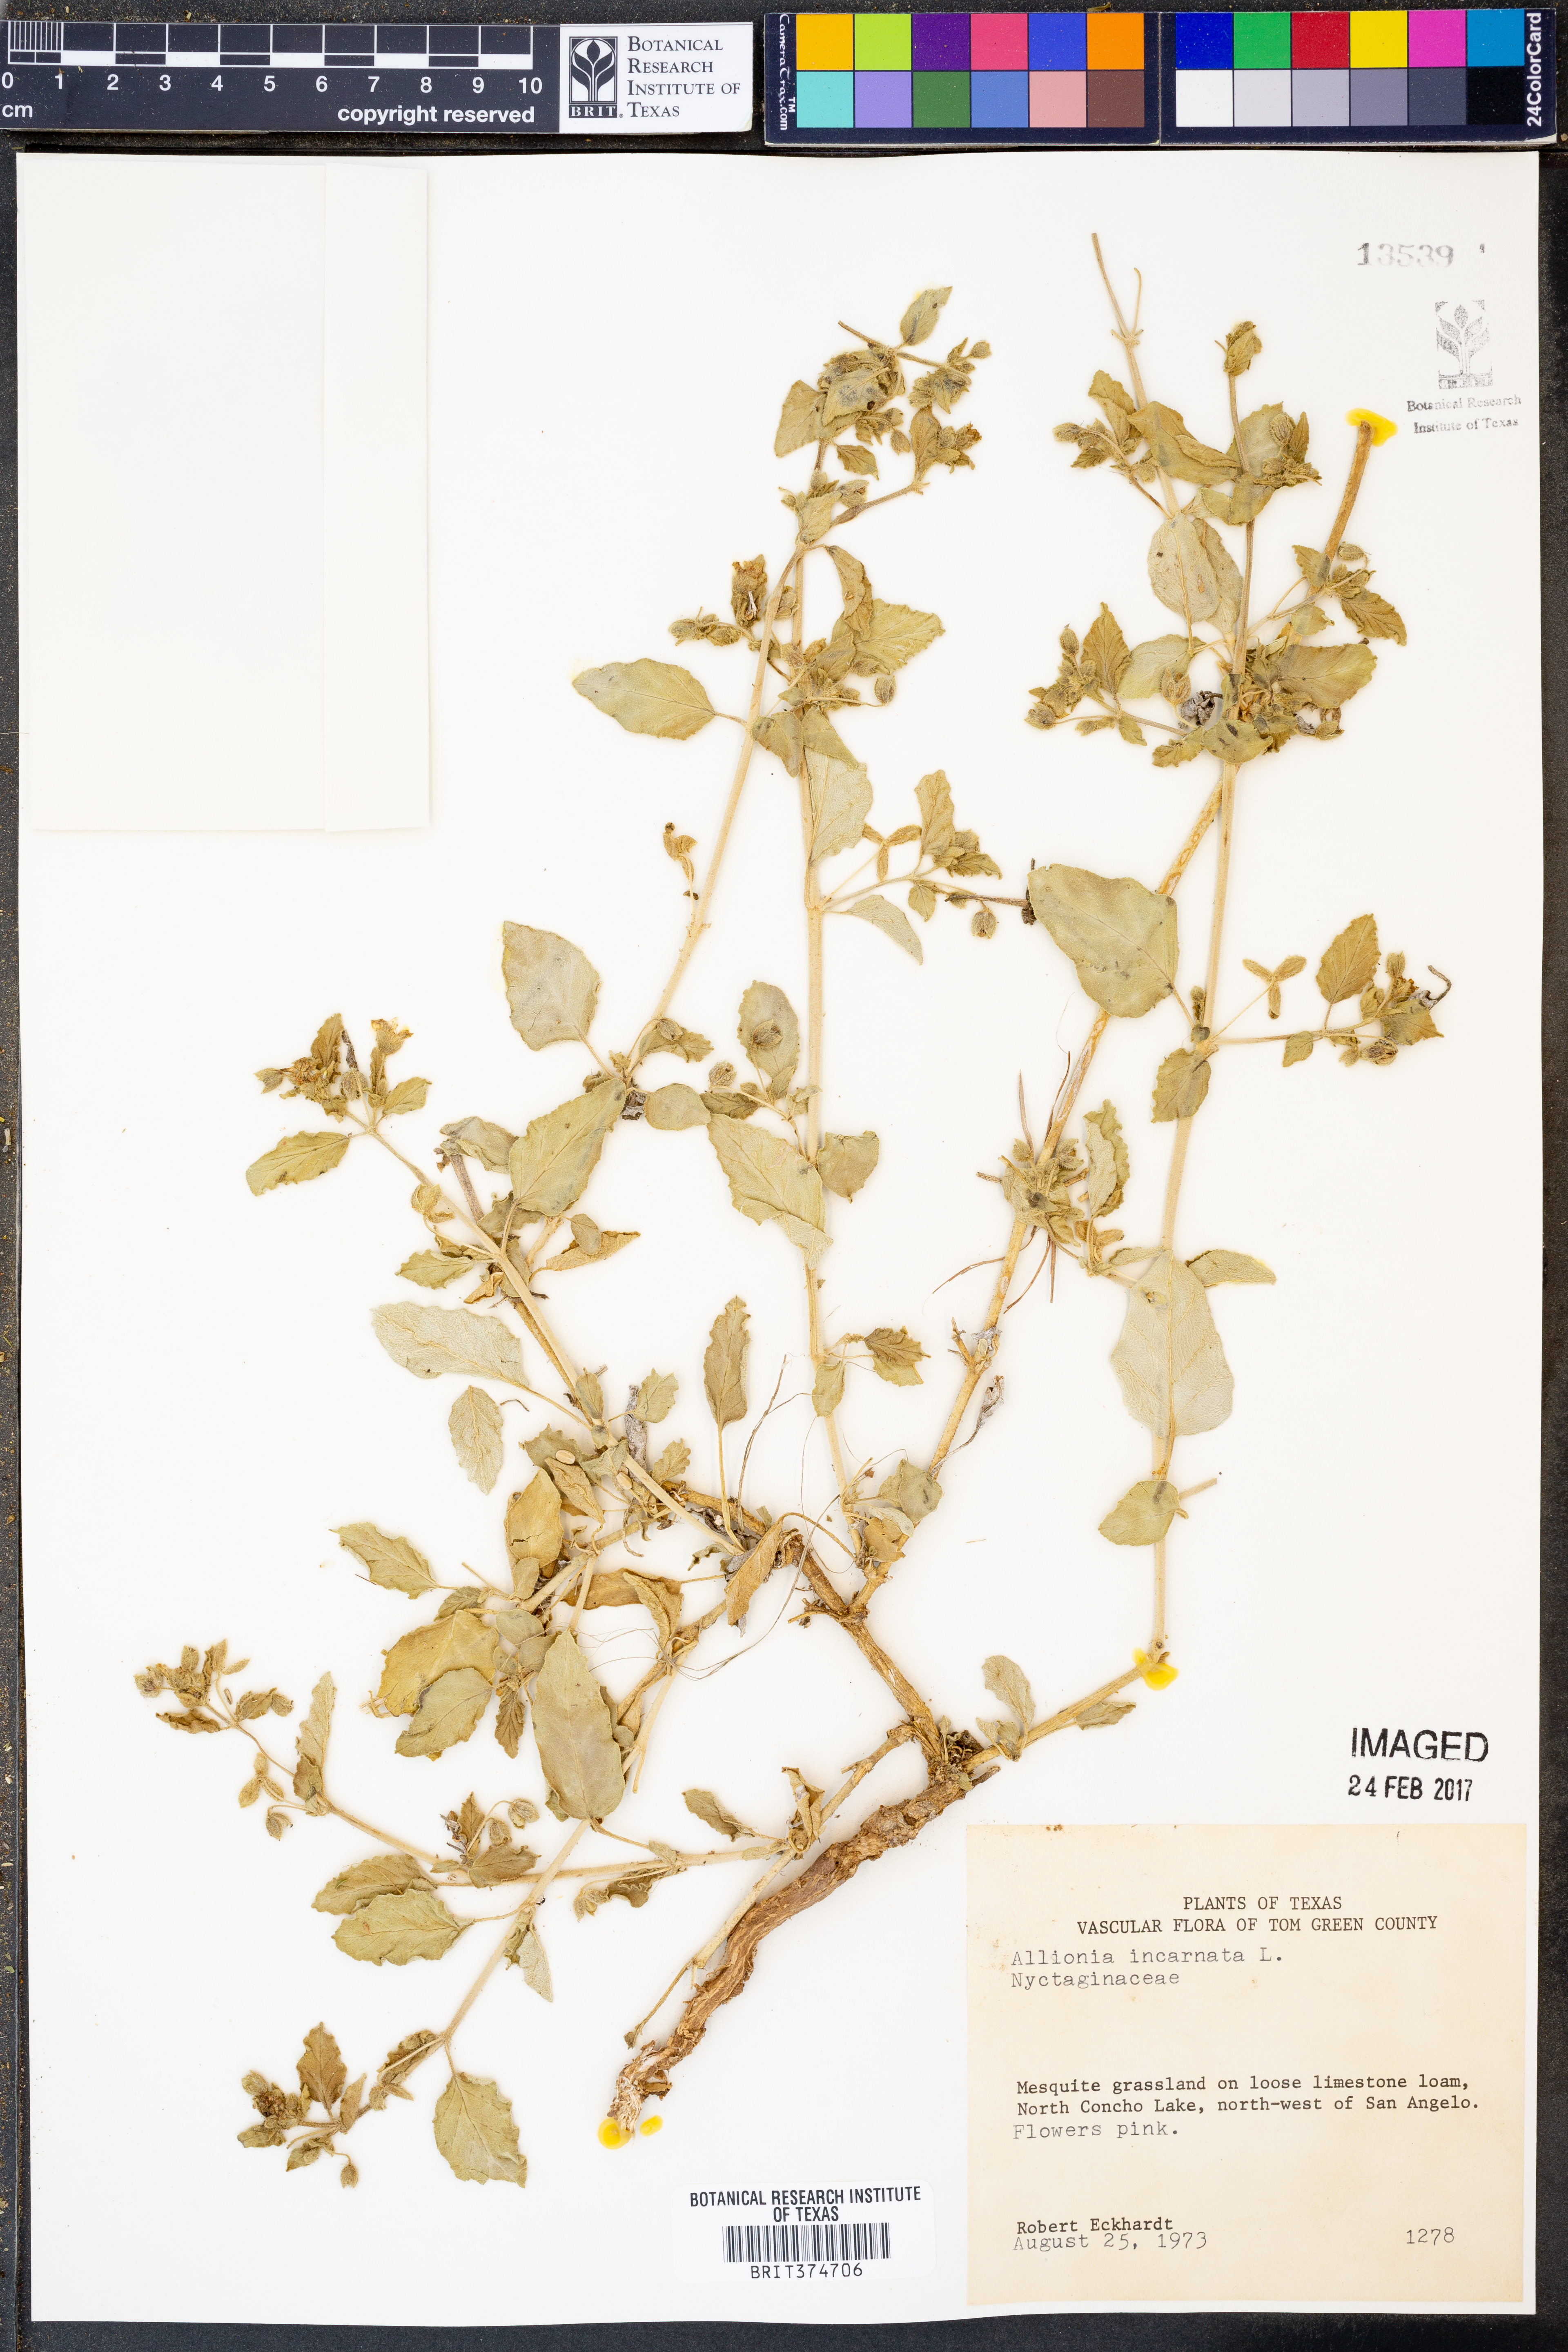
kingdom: Plantae
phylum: Tracheophyta
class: Magnoliopsida
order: Caryophyllales
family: Nyctaginaceae
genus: Allionia
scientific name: Allionia incarnata
